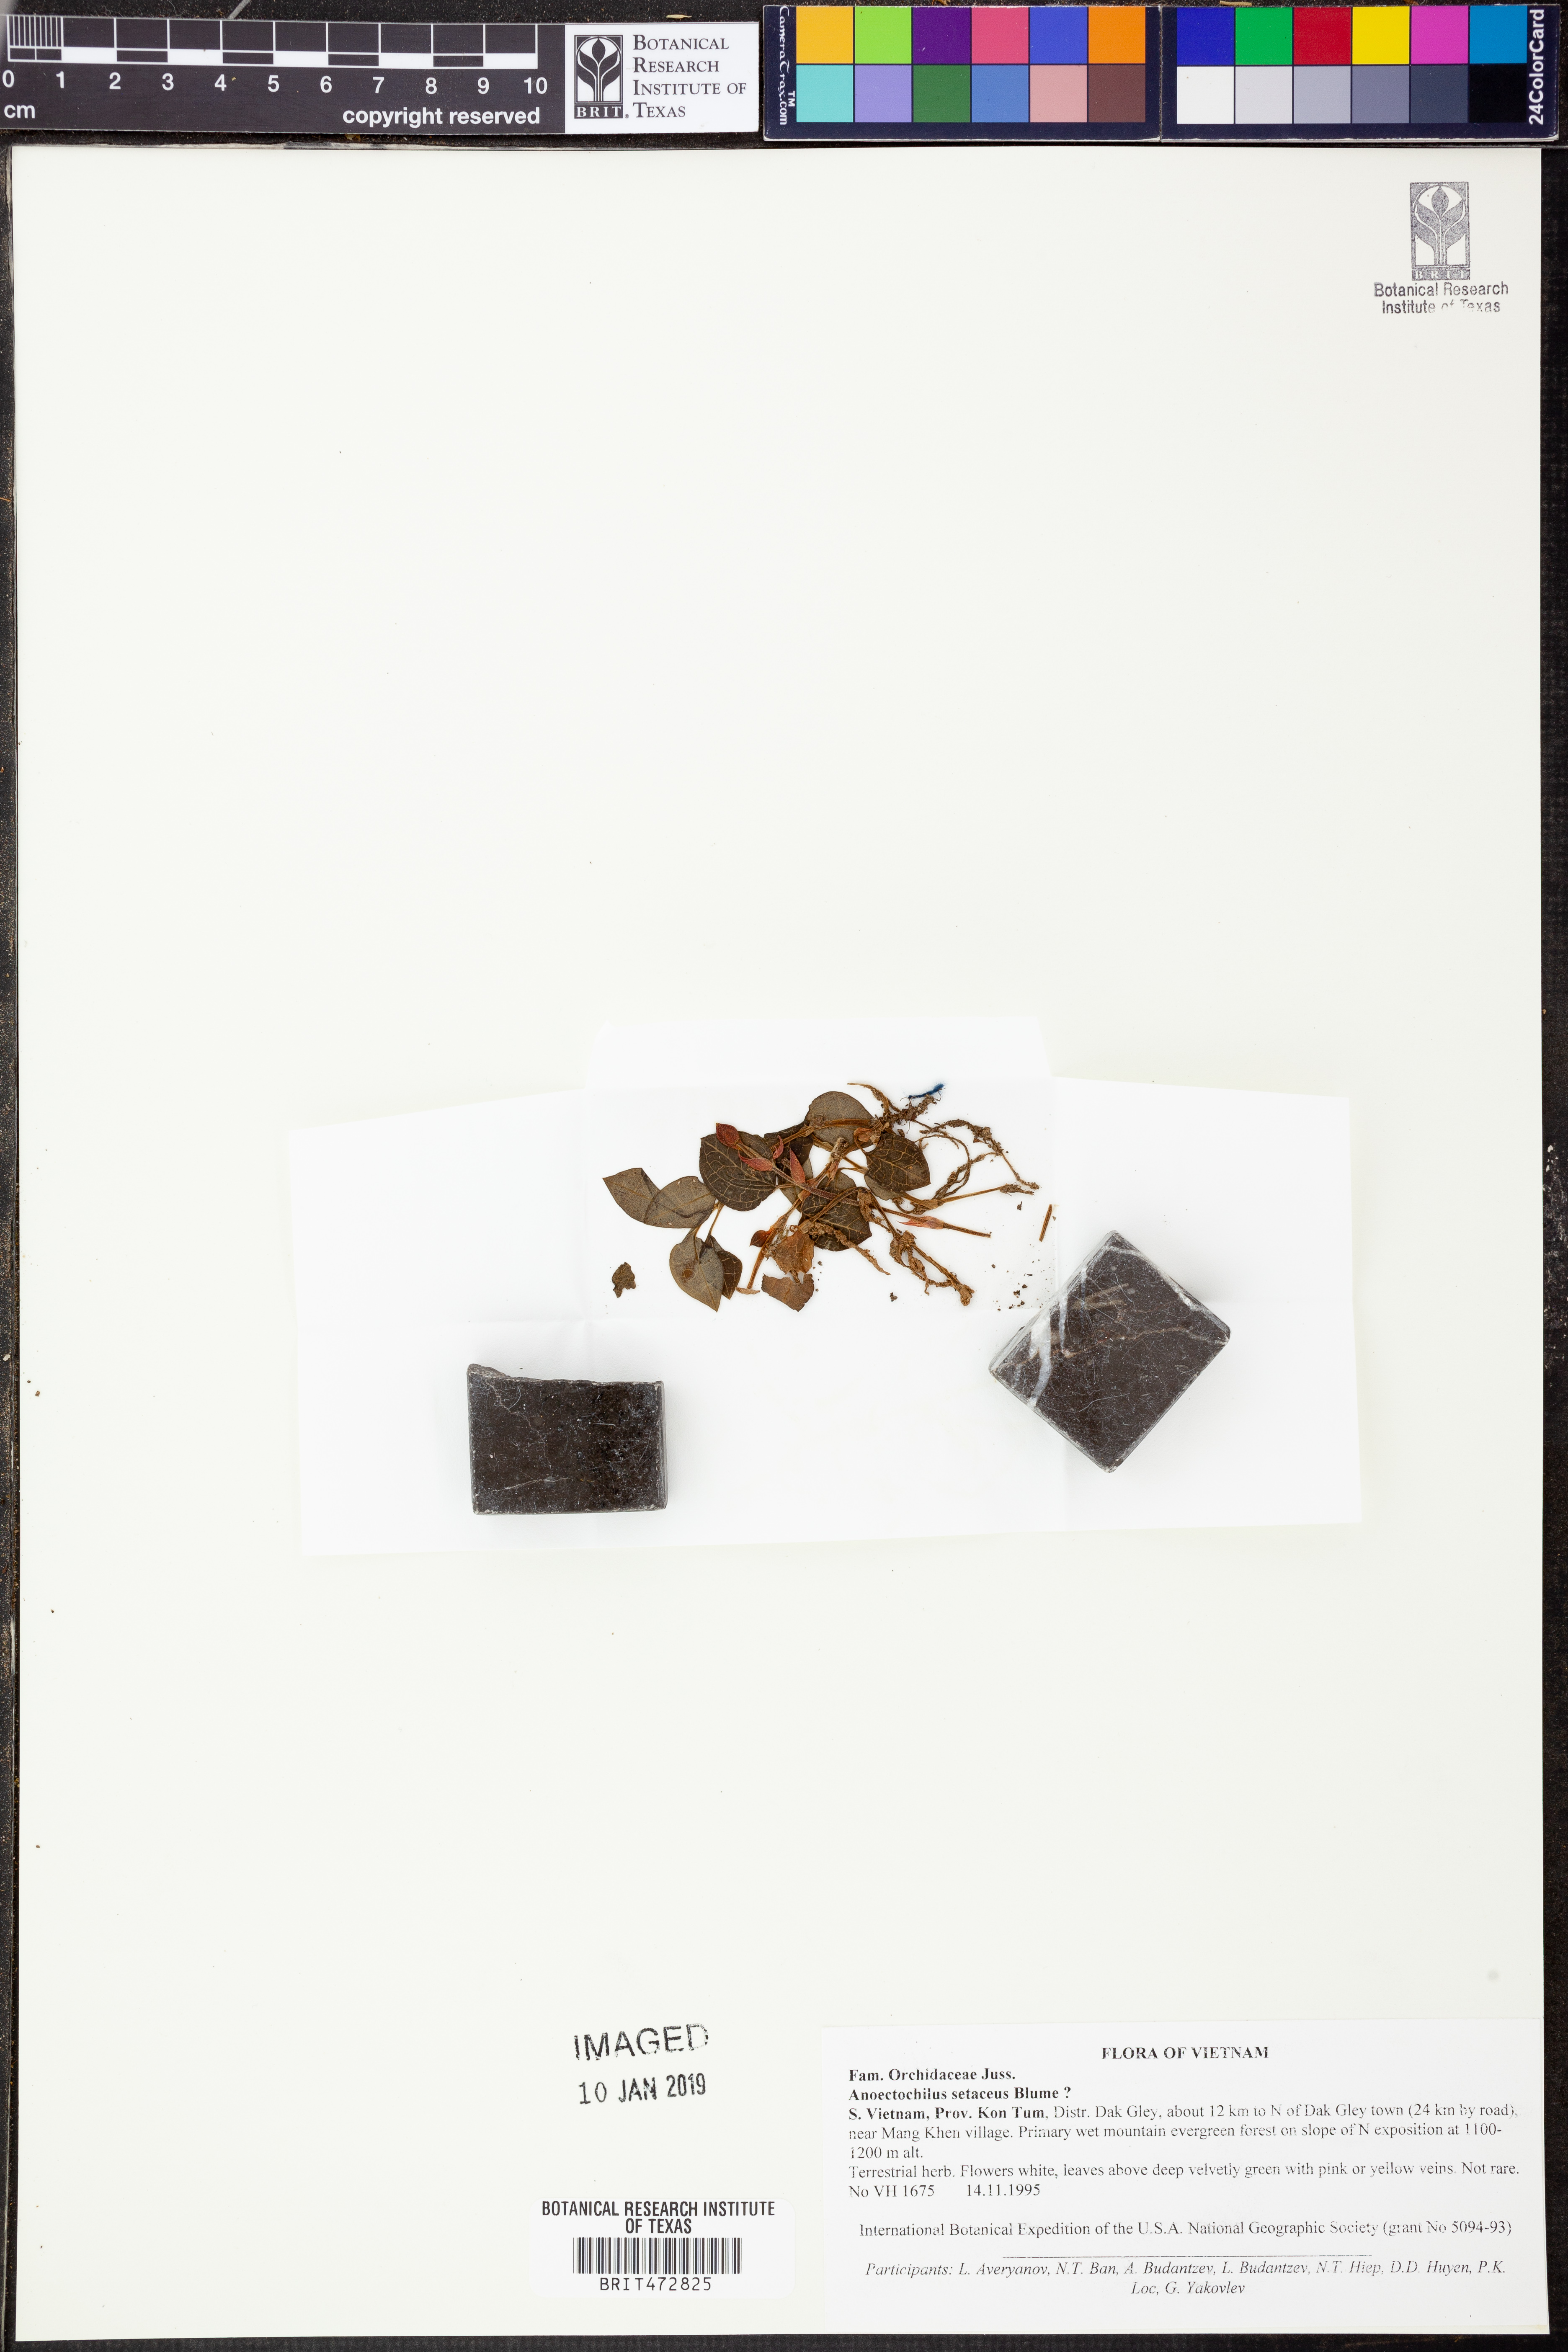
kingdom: Plantae
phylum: Tracheophyta
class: Liliopsida
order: Asparagales
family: Orchidaceae
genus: Anoectochilus
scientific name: Anoectochilus setaceus
